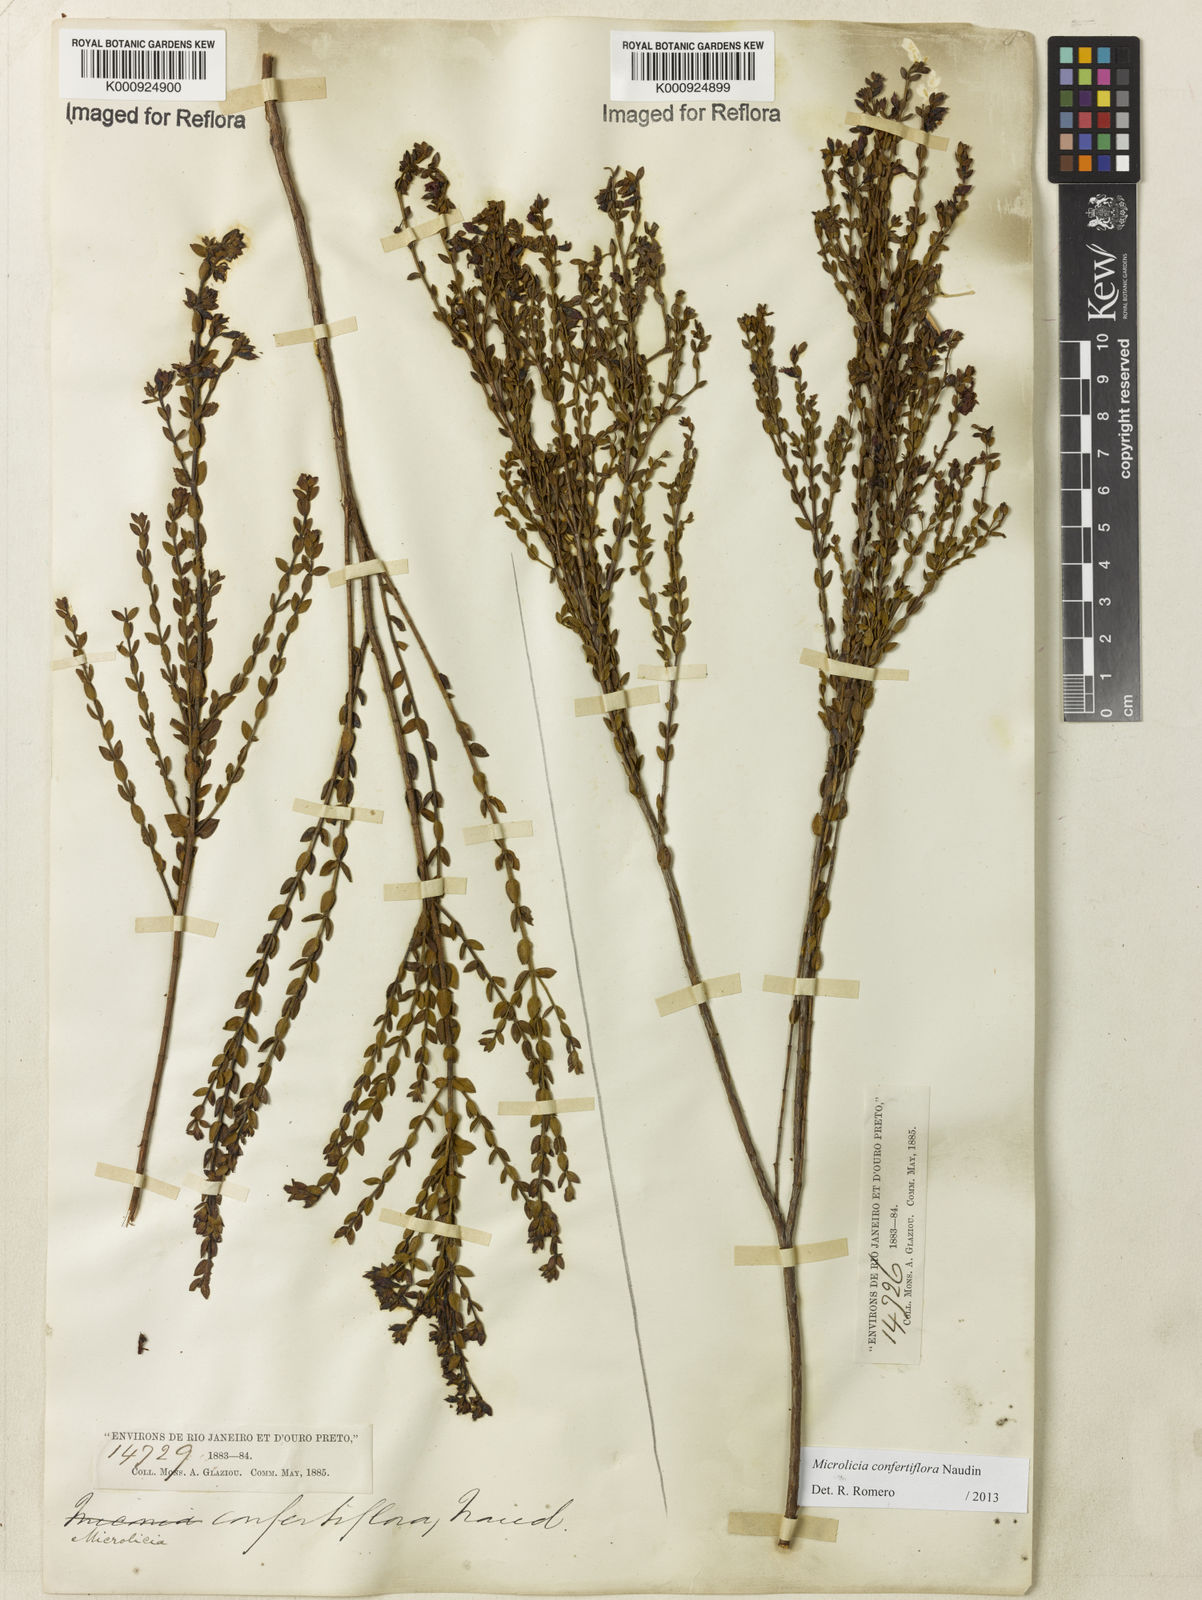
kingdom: Plantae
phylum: Tracheophyta
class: Magnoliopsida
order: Myrtales
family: Melastomataceae
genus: Microlicia
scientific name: Microlicia confertiflora
